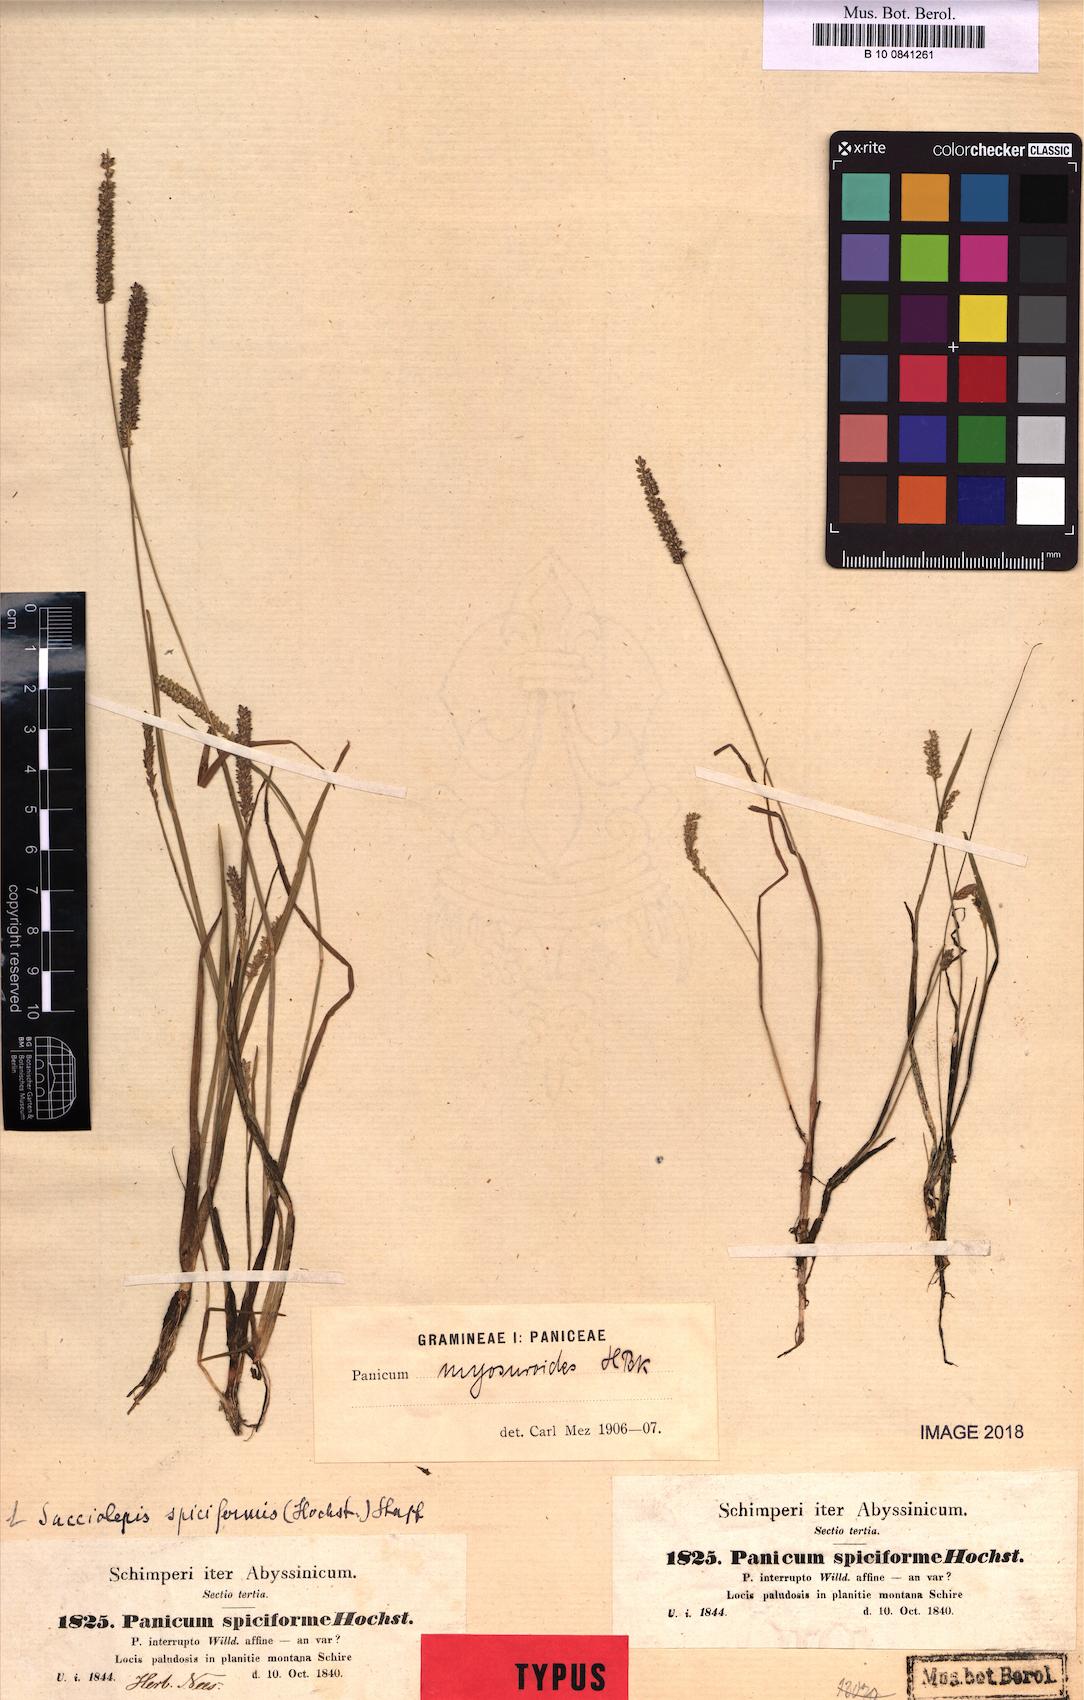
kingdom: Plantae
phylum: Tracheophyta
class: Liliopsida
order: Poales
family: Poaceae
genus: Sacciolepis
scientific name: Sacciolepis myosuroides
